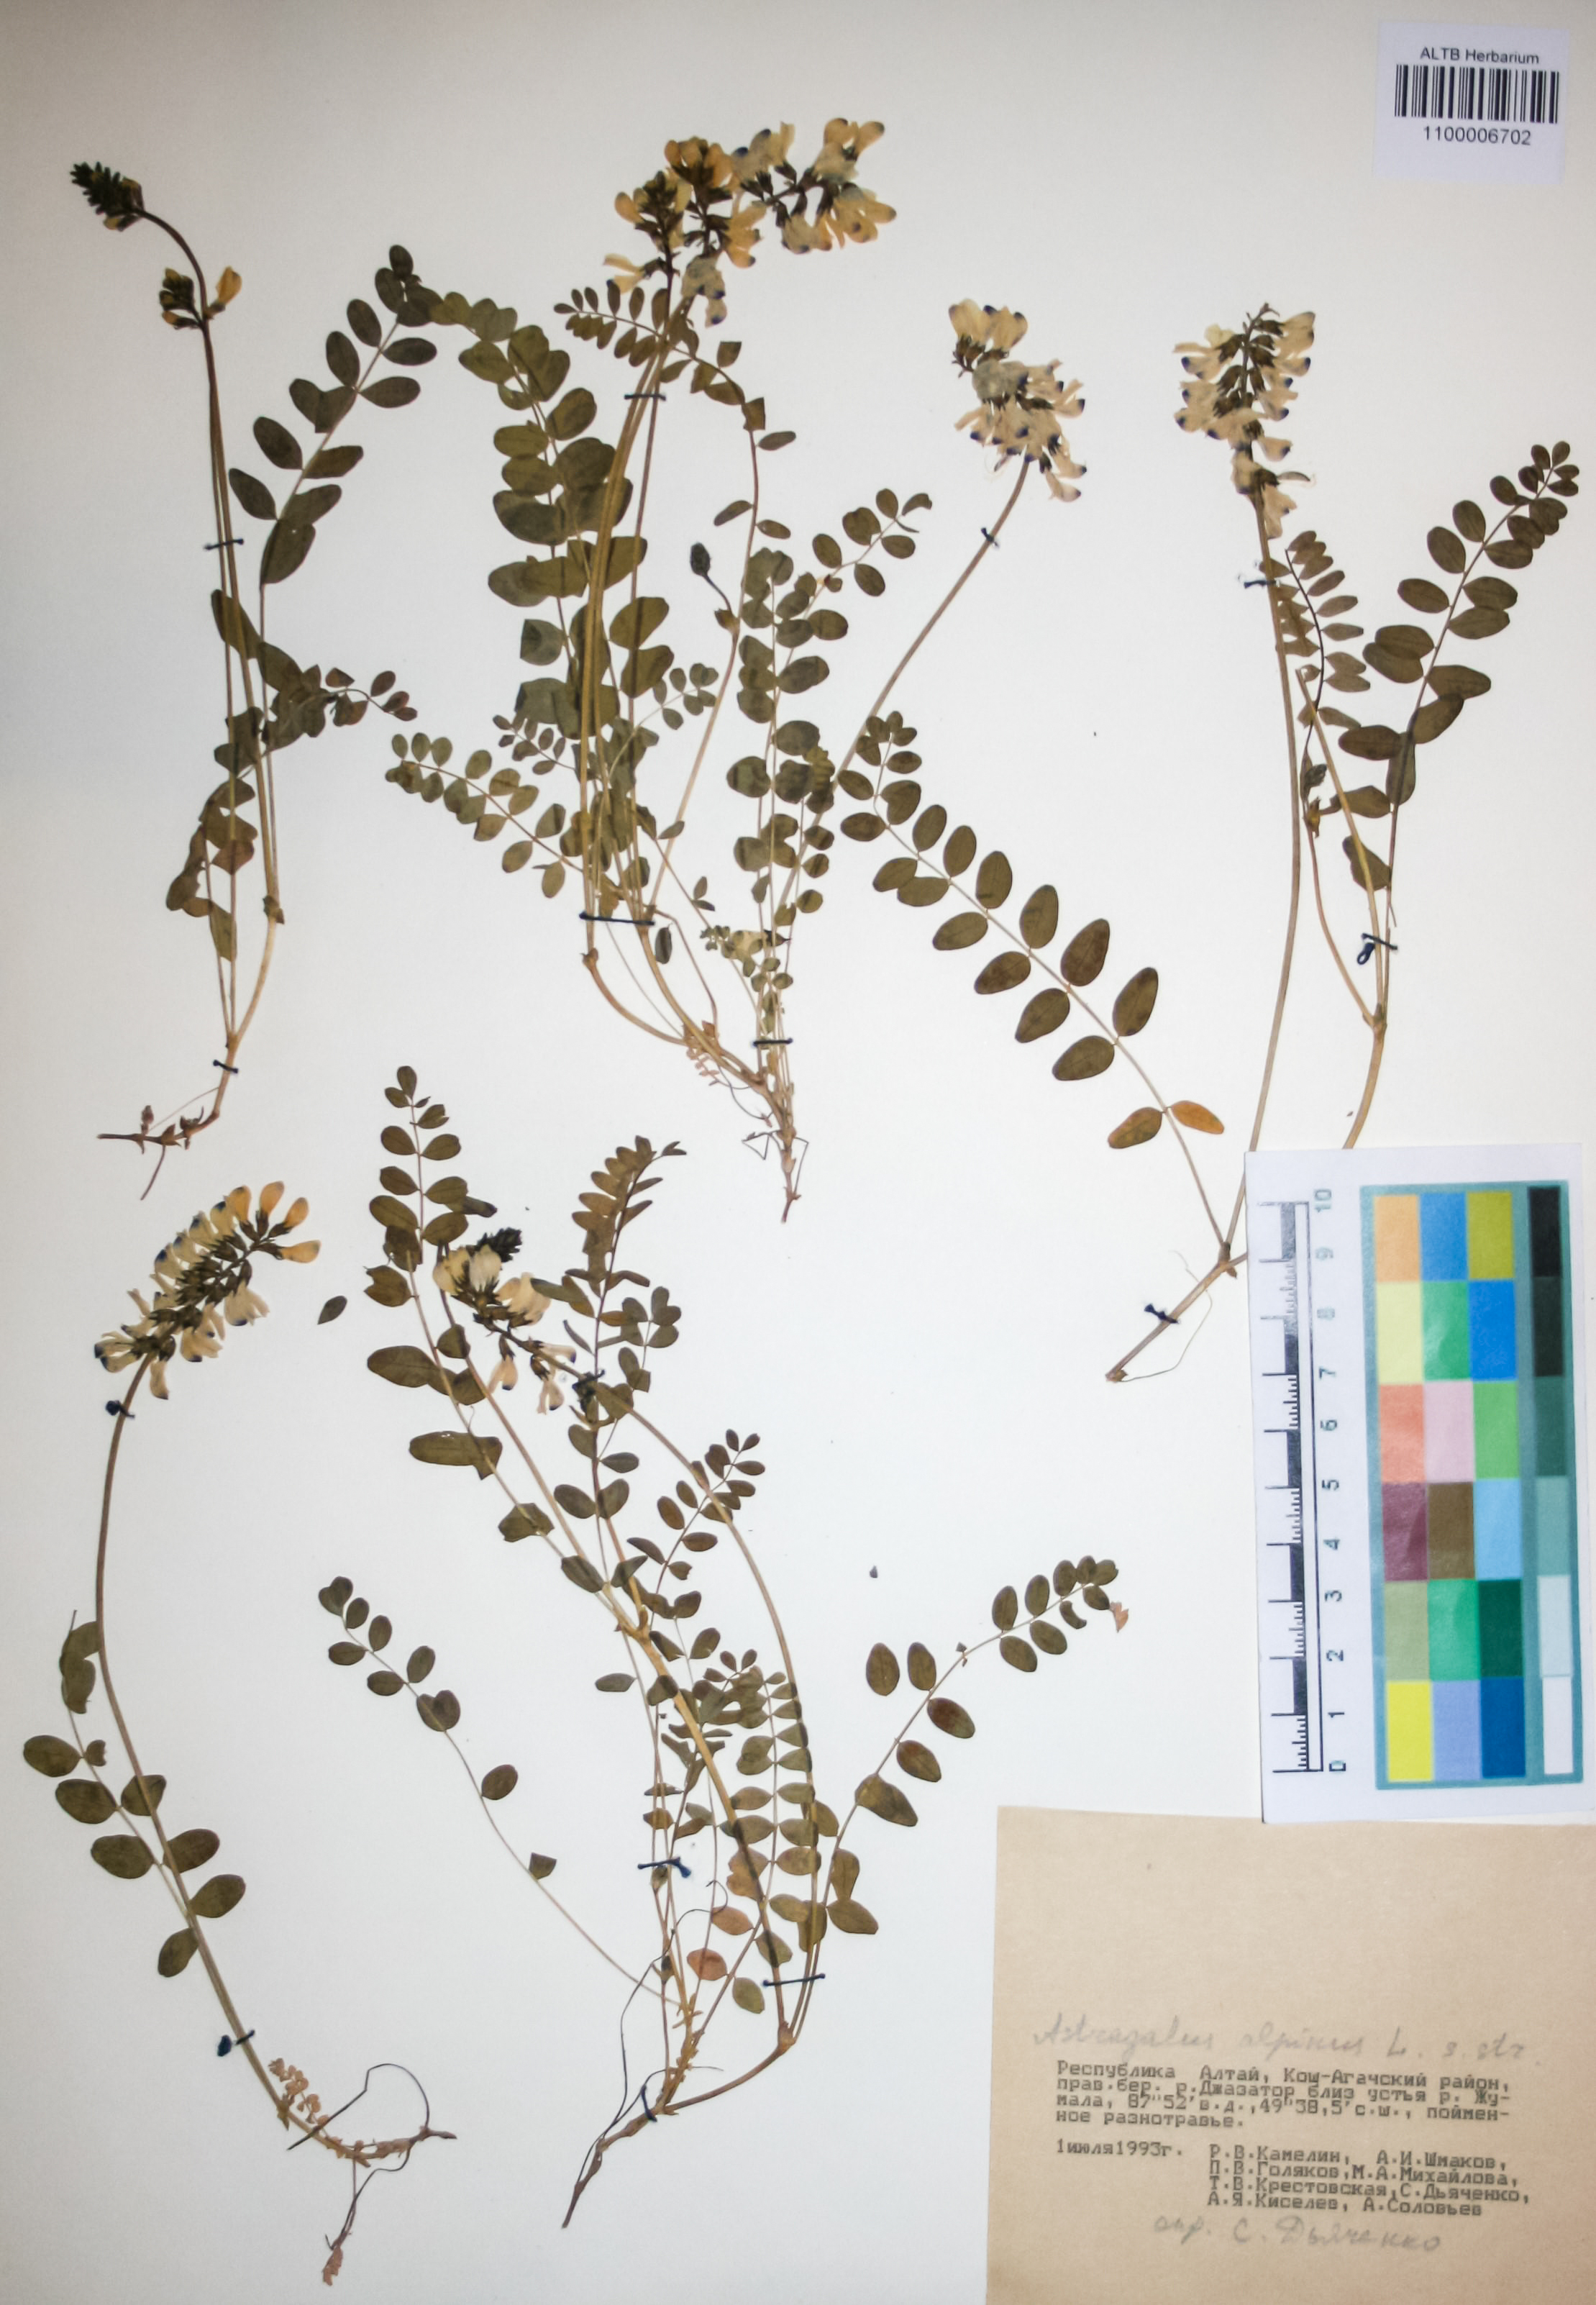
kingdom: Plantae
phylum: Tracheophyta
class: Magnoliopsida
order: Fabales
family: Fabaceae
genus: Astragalus
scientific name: Astragalus alpinus
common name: Alpine milk-vetch
